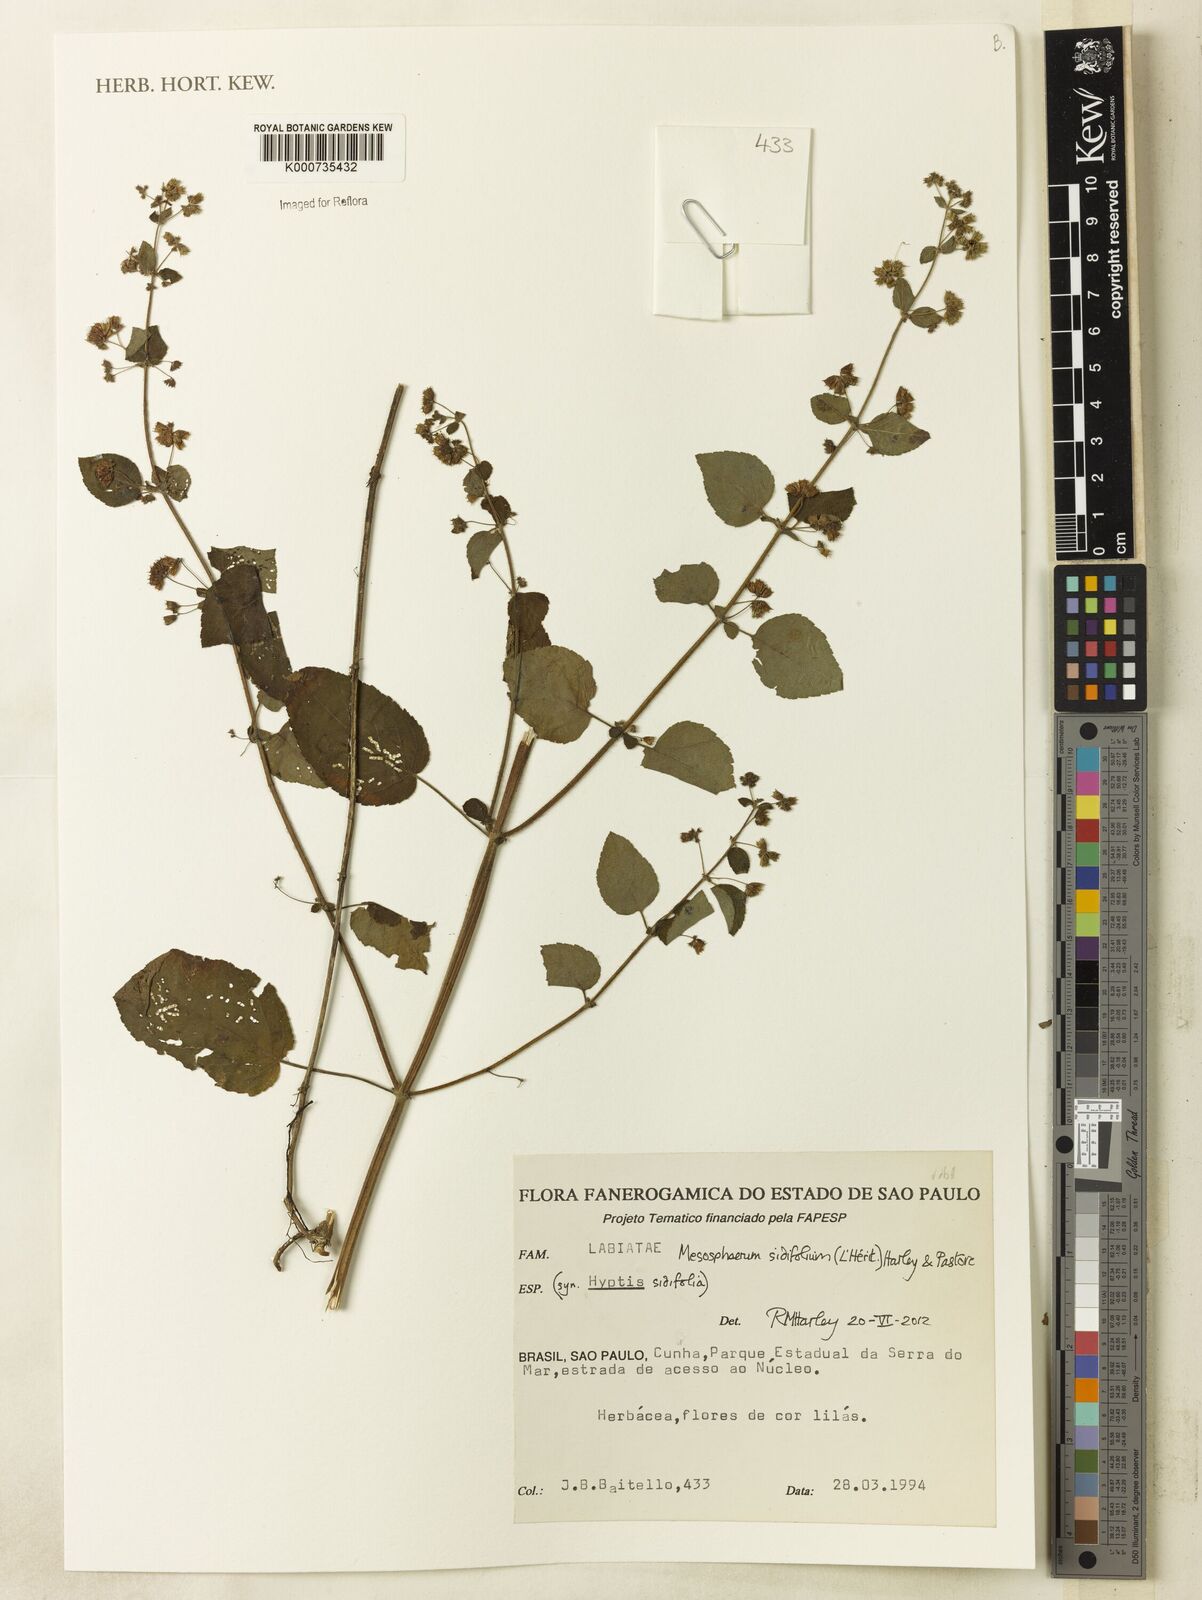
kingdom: Plantae
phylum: Tracheophyta
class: Magnoliopsida
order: Lamiales
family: Lamiaceae
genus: Mesosphaerum
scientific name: Mesosphaerum
